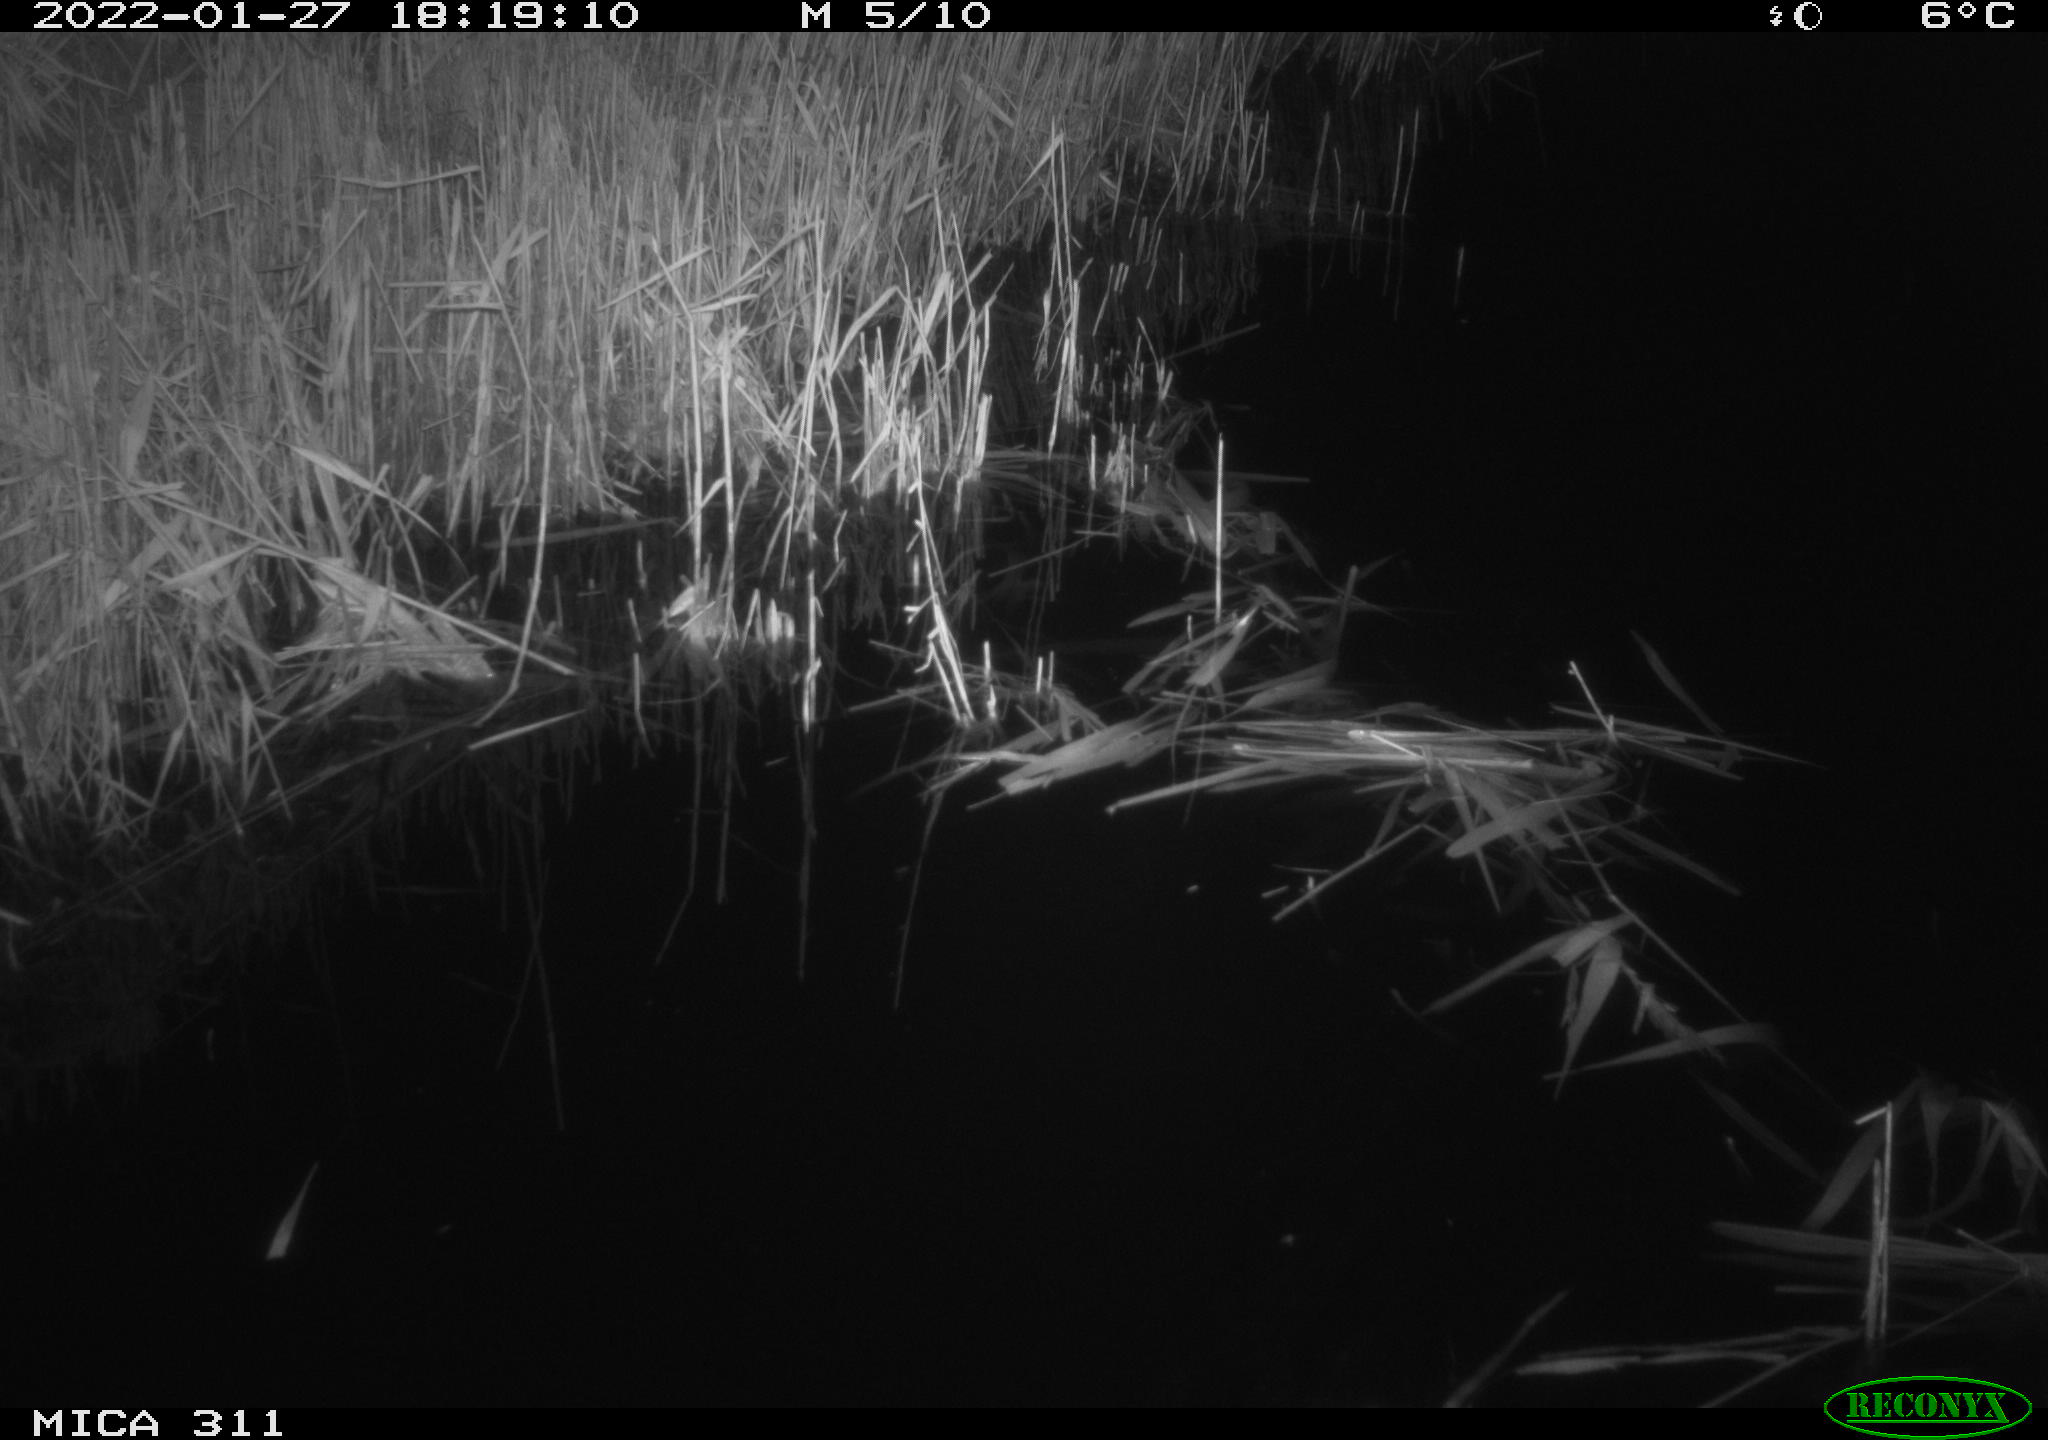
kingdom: Animalia
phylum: Chordata
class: Mammalia
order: Rodentia
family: Muridae
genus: Rattus
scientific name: Rattus norvegicus
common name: Brown rat
